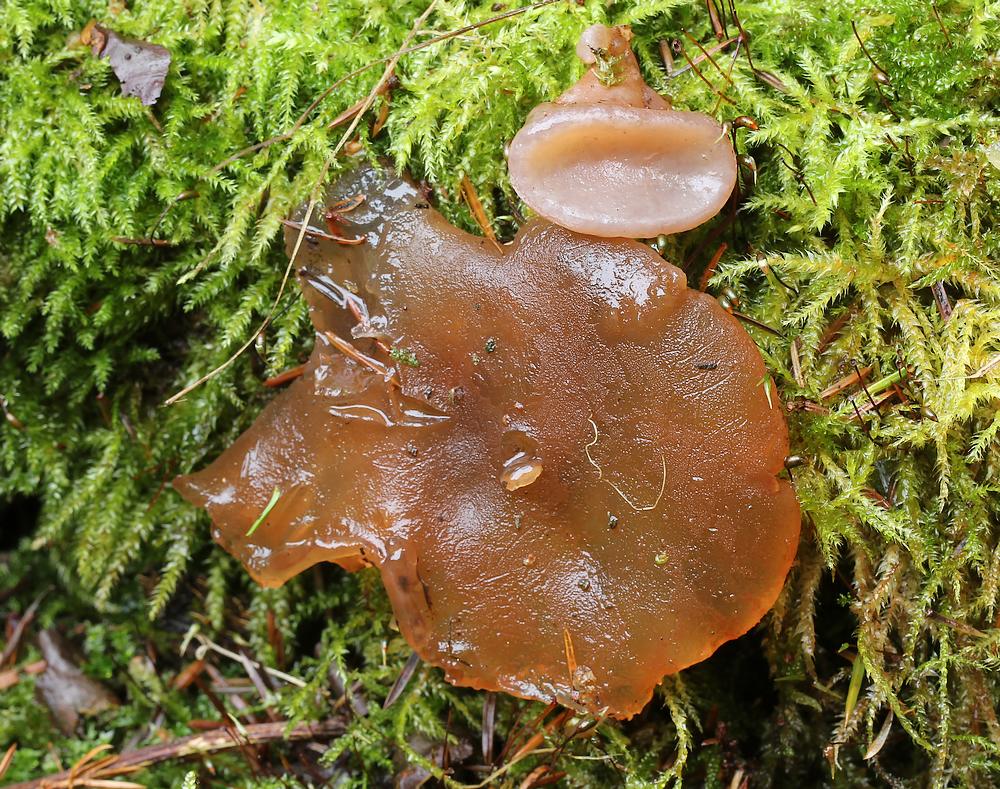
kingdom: Fungi
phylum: Basidiomycota
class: Agaricomycetes
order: Auriculariales
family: Auriculariaceae
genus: Auricularia
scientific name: Auricularia auricula-judae
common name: almindelig judasøre
